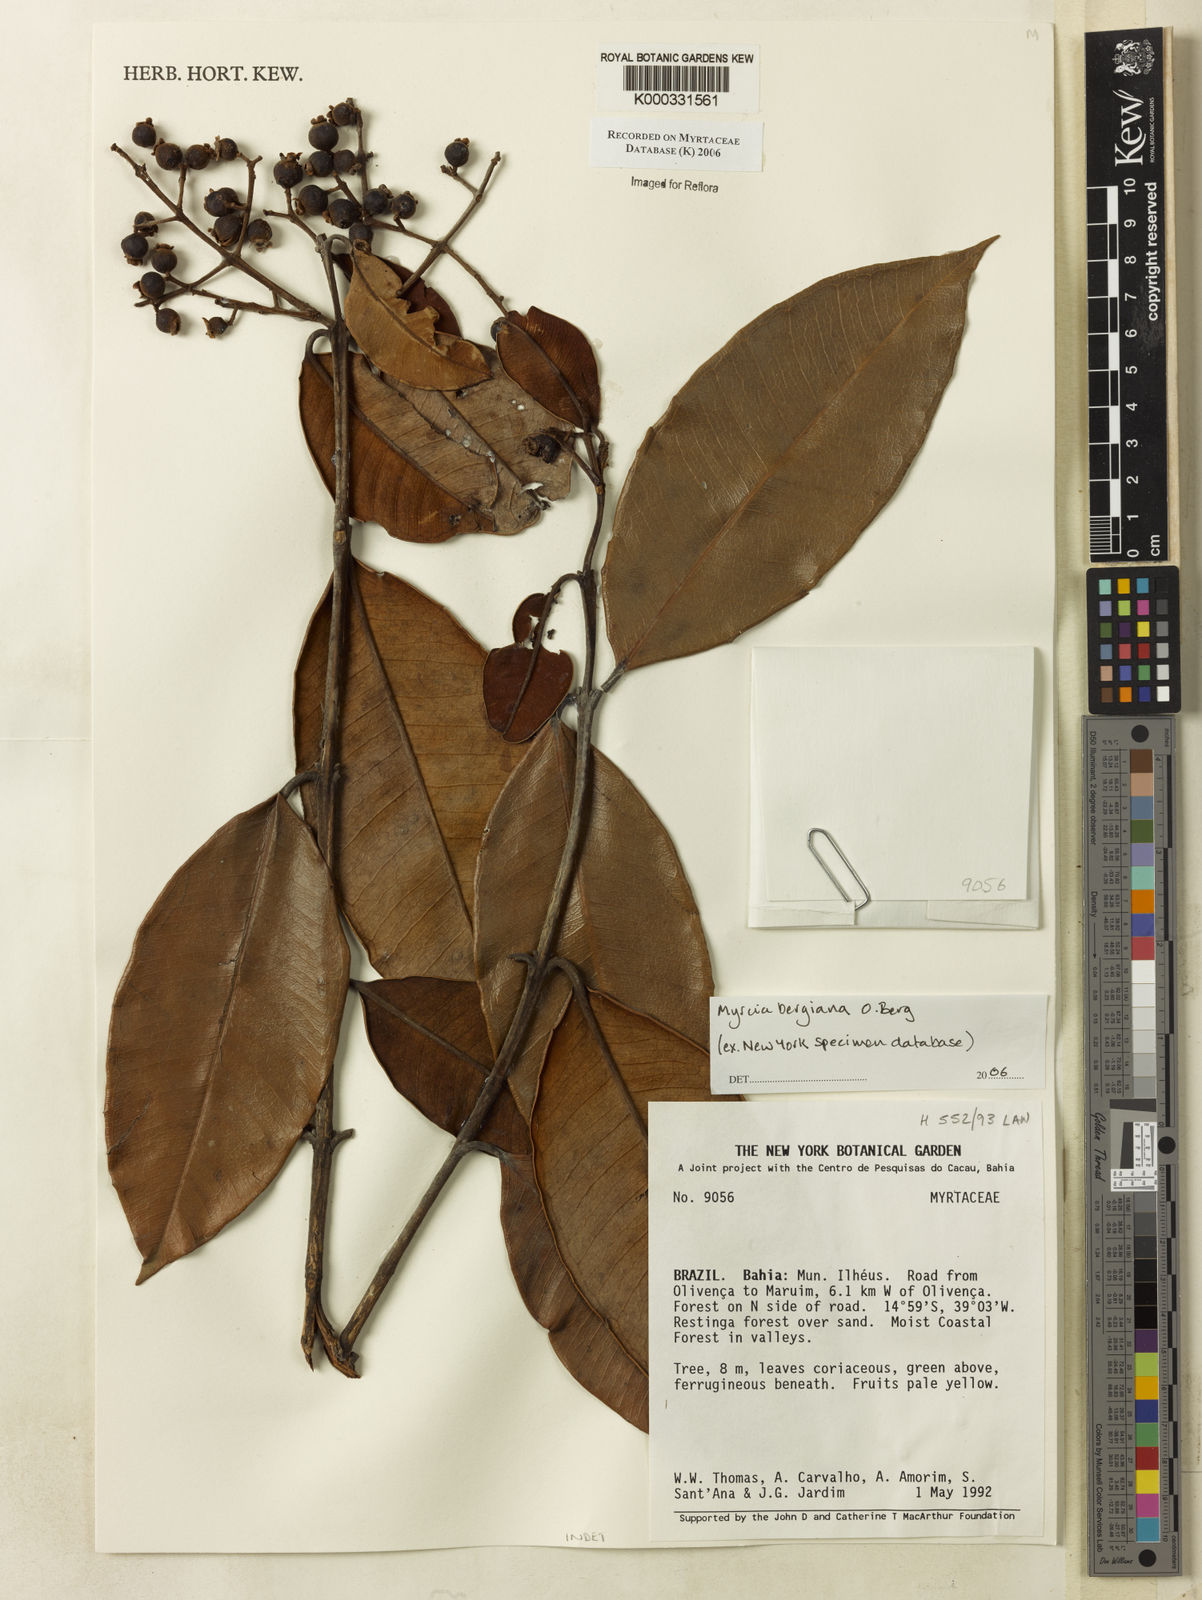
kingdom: Plantae
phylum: Tracheophyta
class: Magnoliopsida
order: Myrtales
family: Myrtaceae
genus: Myrcia
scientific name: Myrcia bergiana
